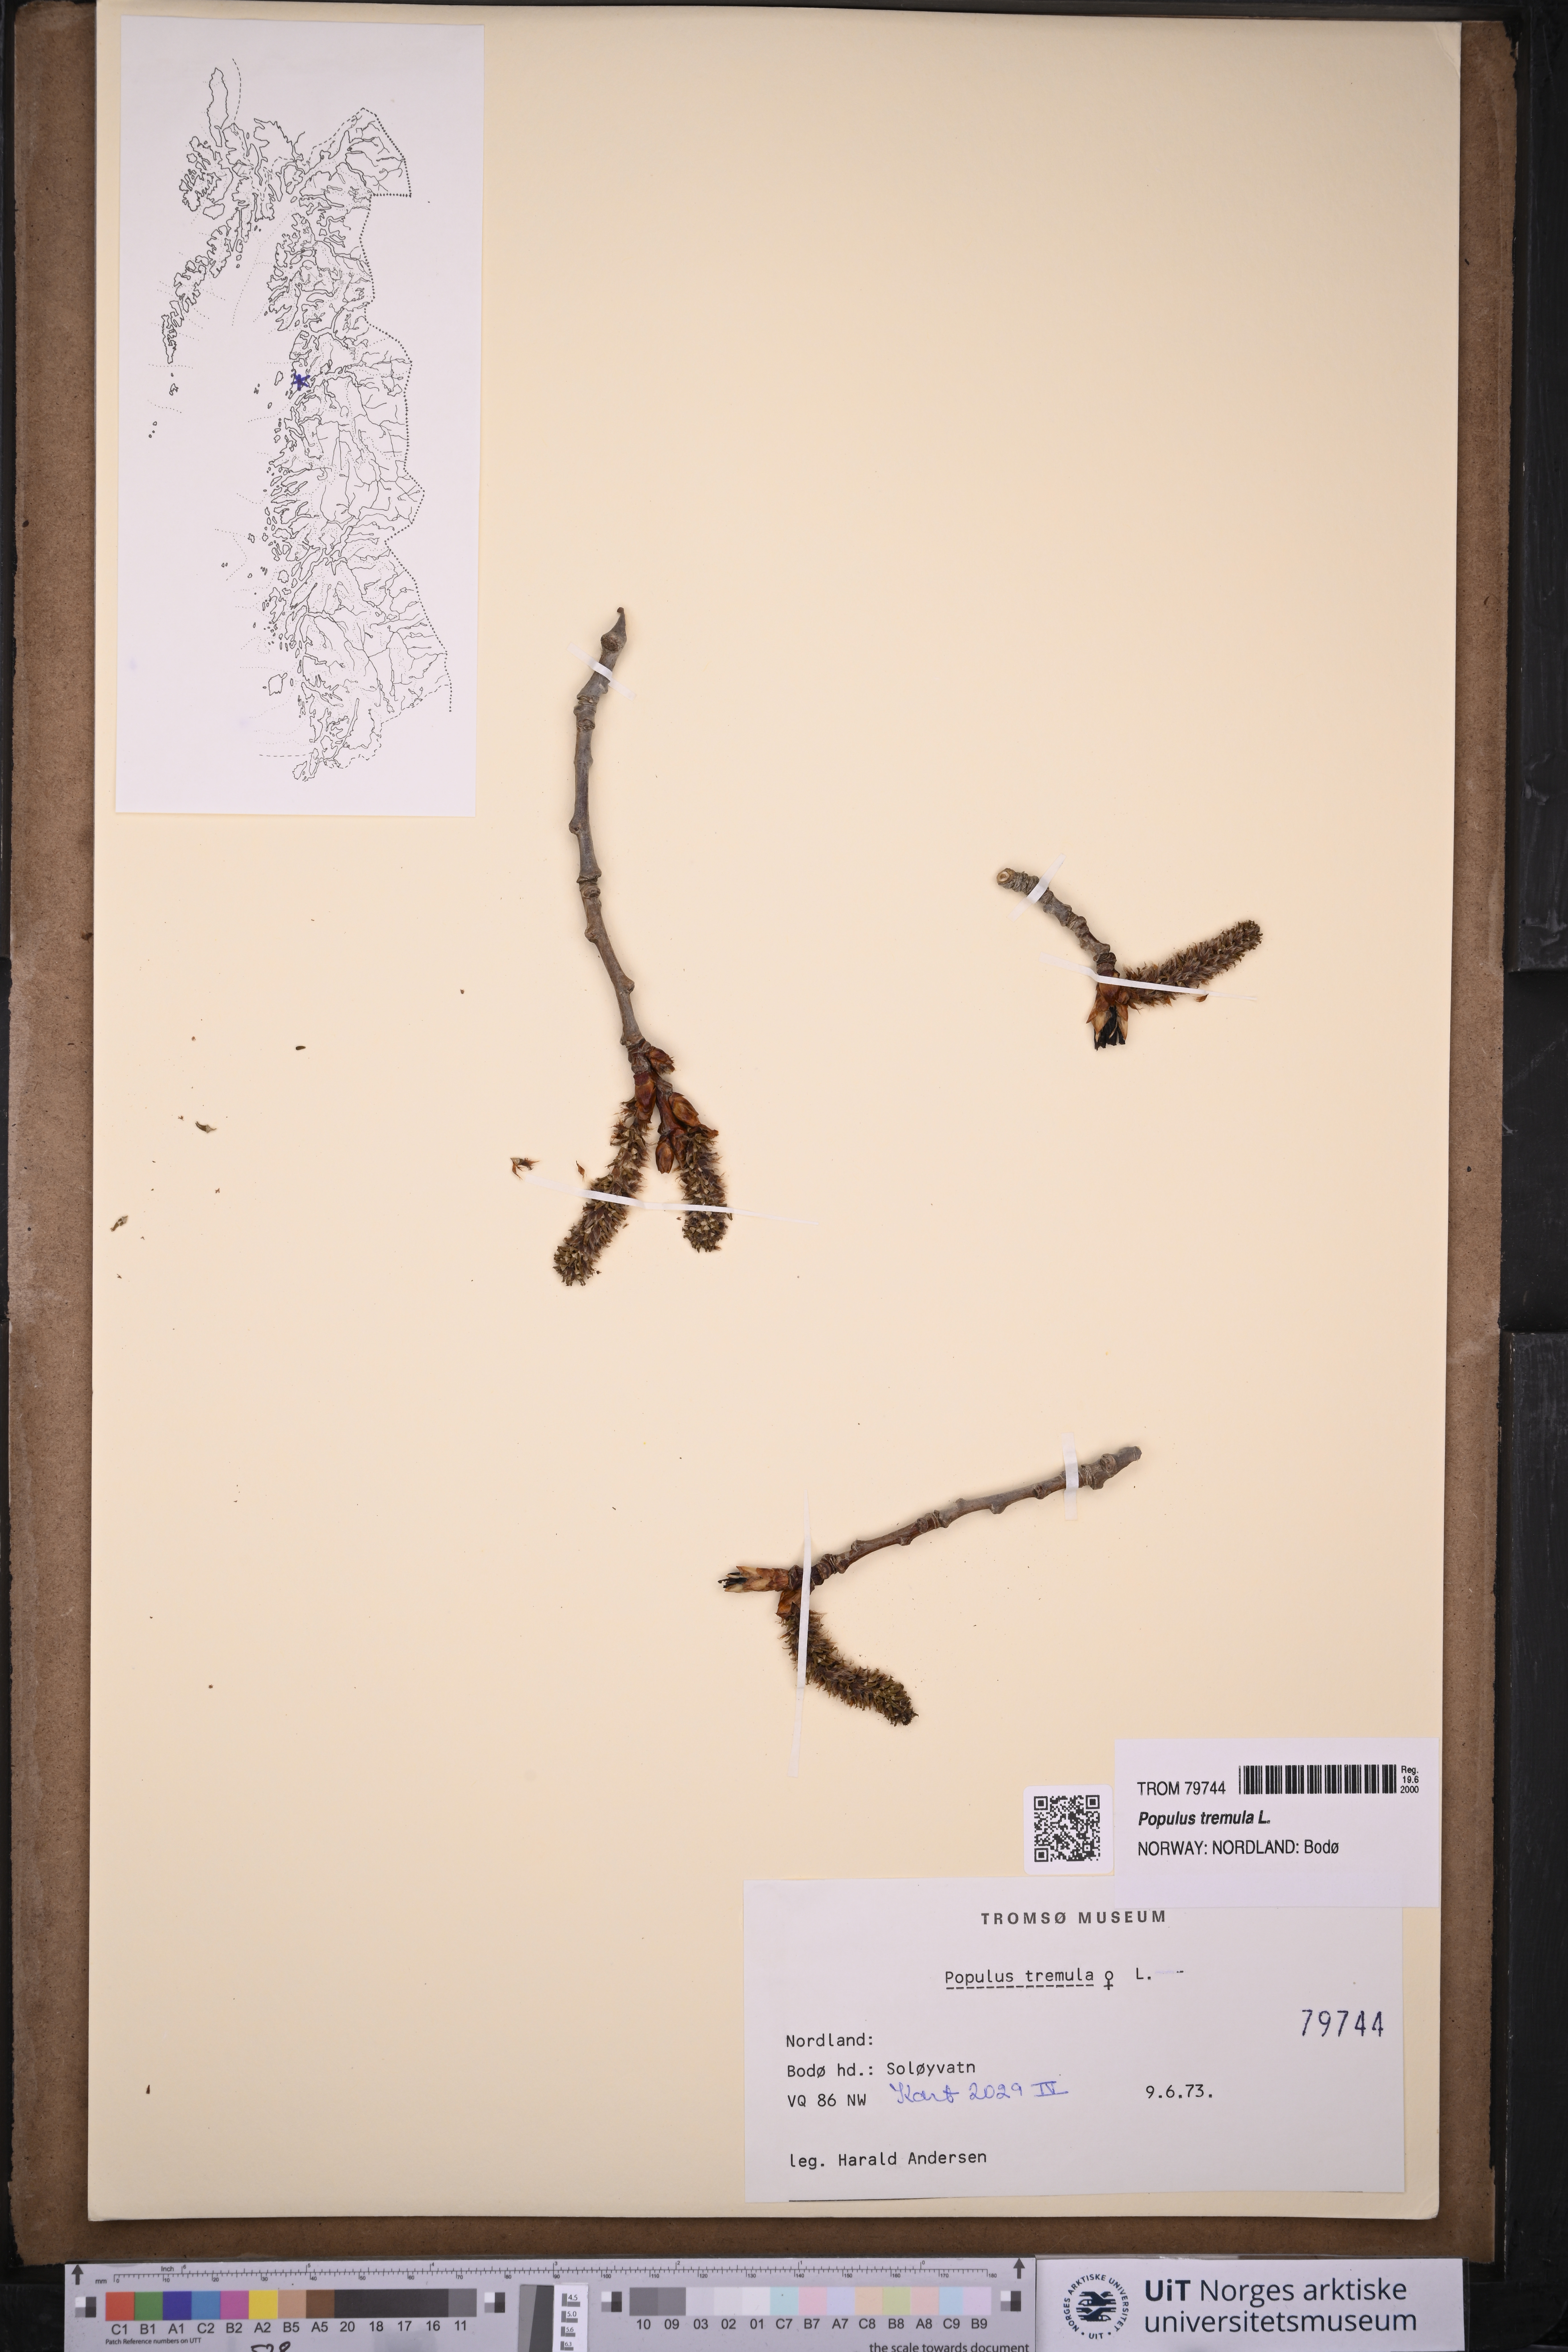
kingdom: Plantae
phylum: Tracheophyta
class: Magnoliopsida
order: Malpighiales
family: Salicaceae
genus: Populus
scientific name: Populus tremula
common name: European aspen
